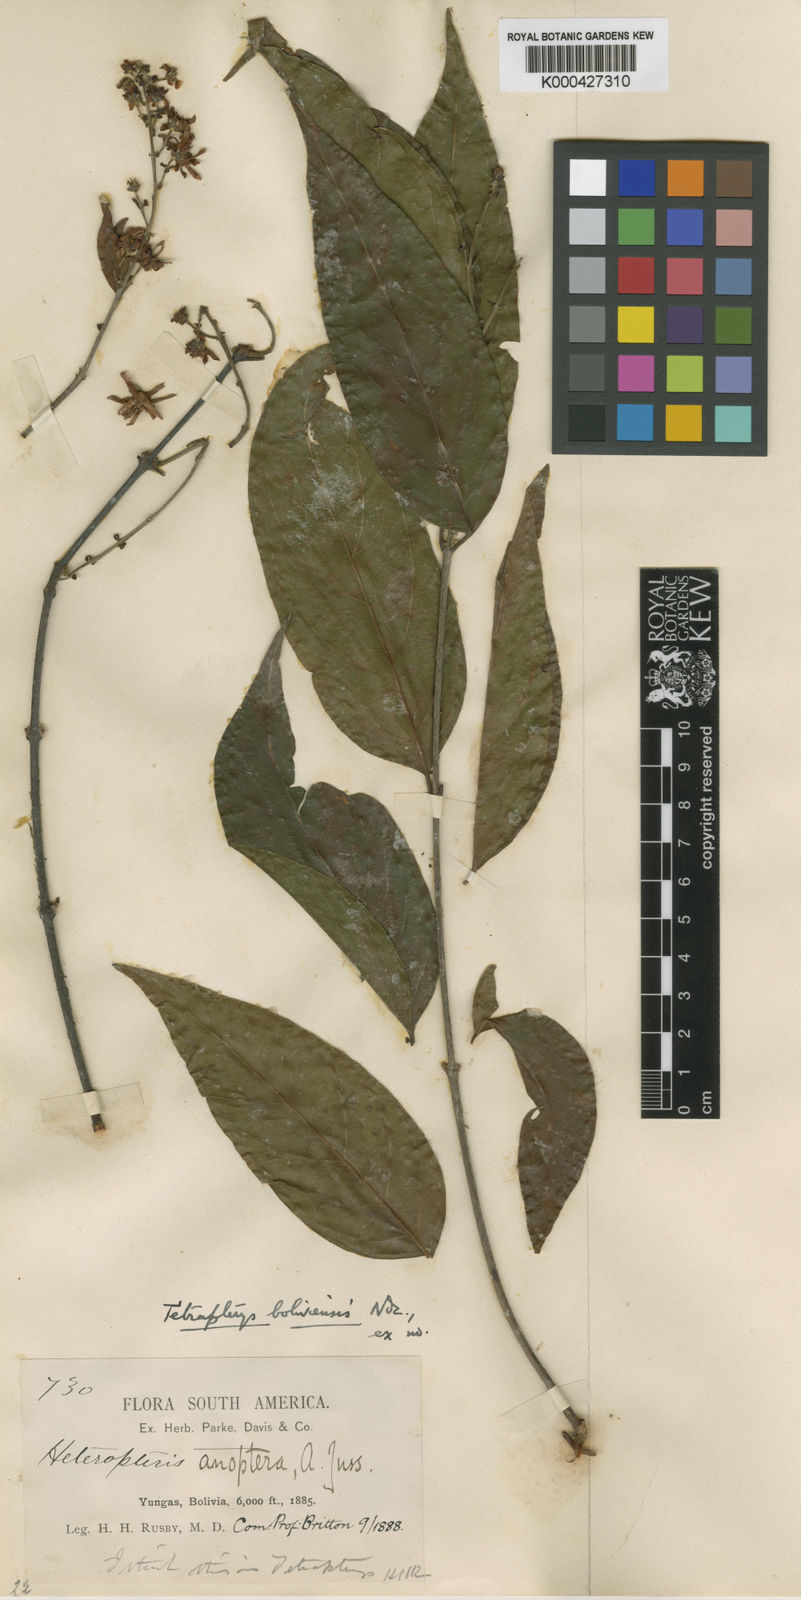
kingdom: Plantae
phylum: Tracheophyta
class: Magnoliopsida
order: Malpighiales
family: Malpighiaceae
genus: Glicophyllum
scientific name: Glicophyllum stylopterum
